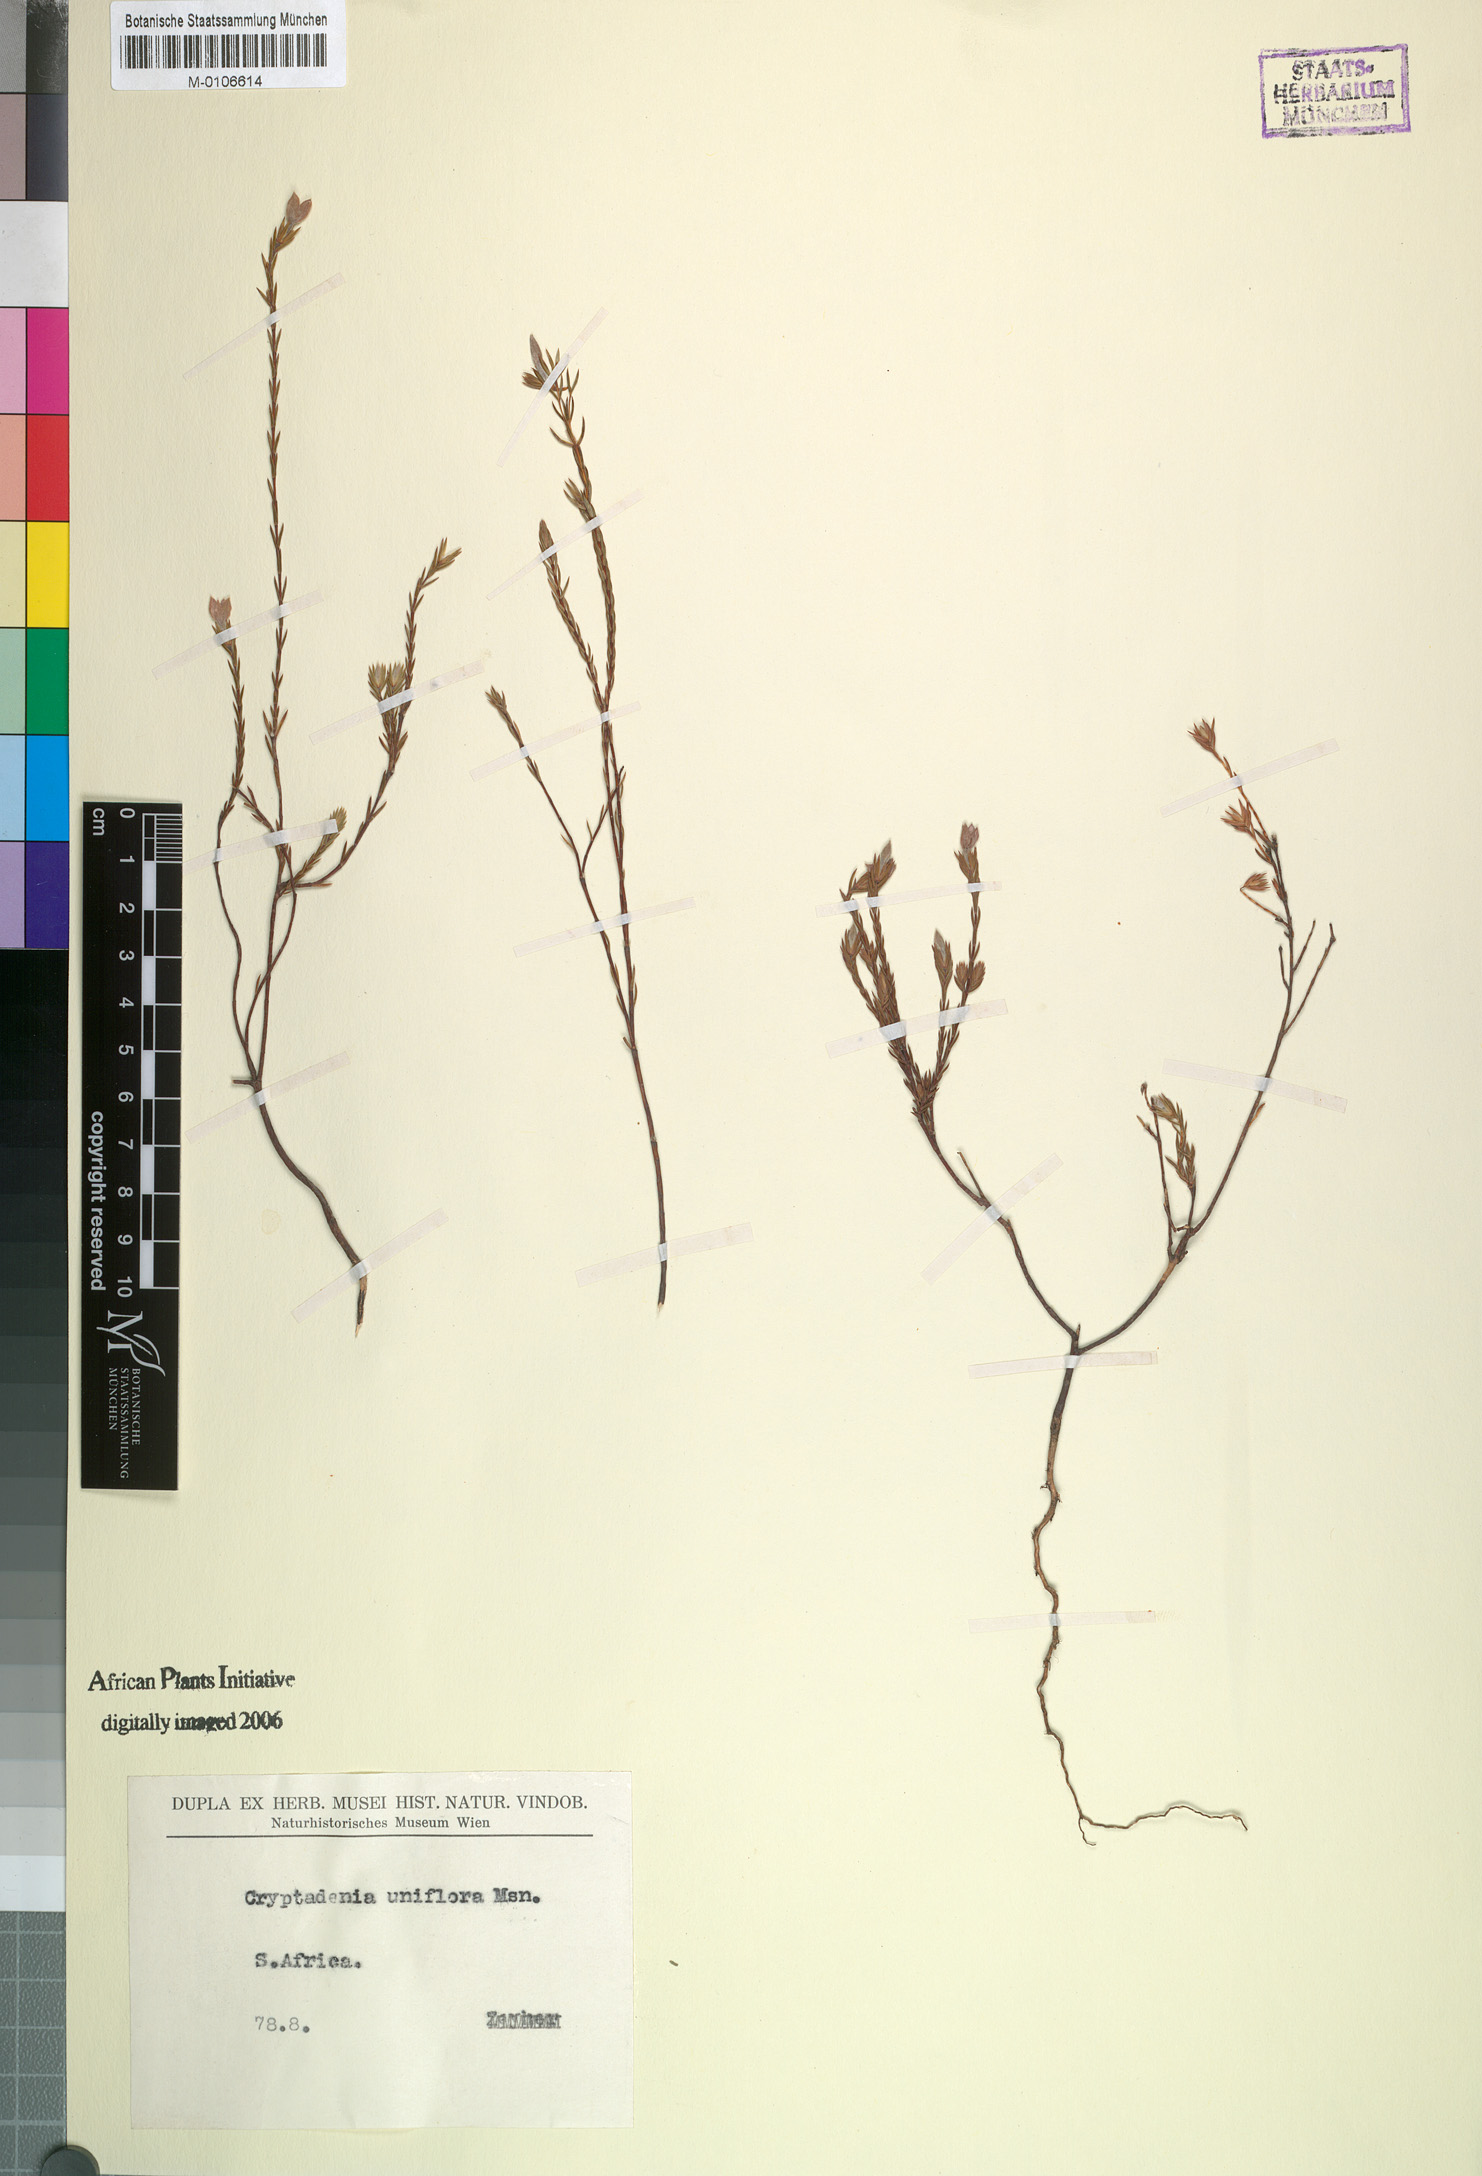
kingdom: Plantae
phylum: Tracheophyta
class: Magnoliopsida
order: Malvales
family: Thymelaeaceae
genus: Lachnaea
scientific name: Lachnaea uniflora
